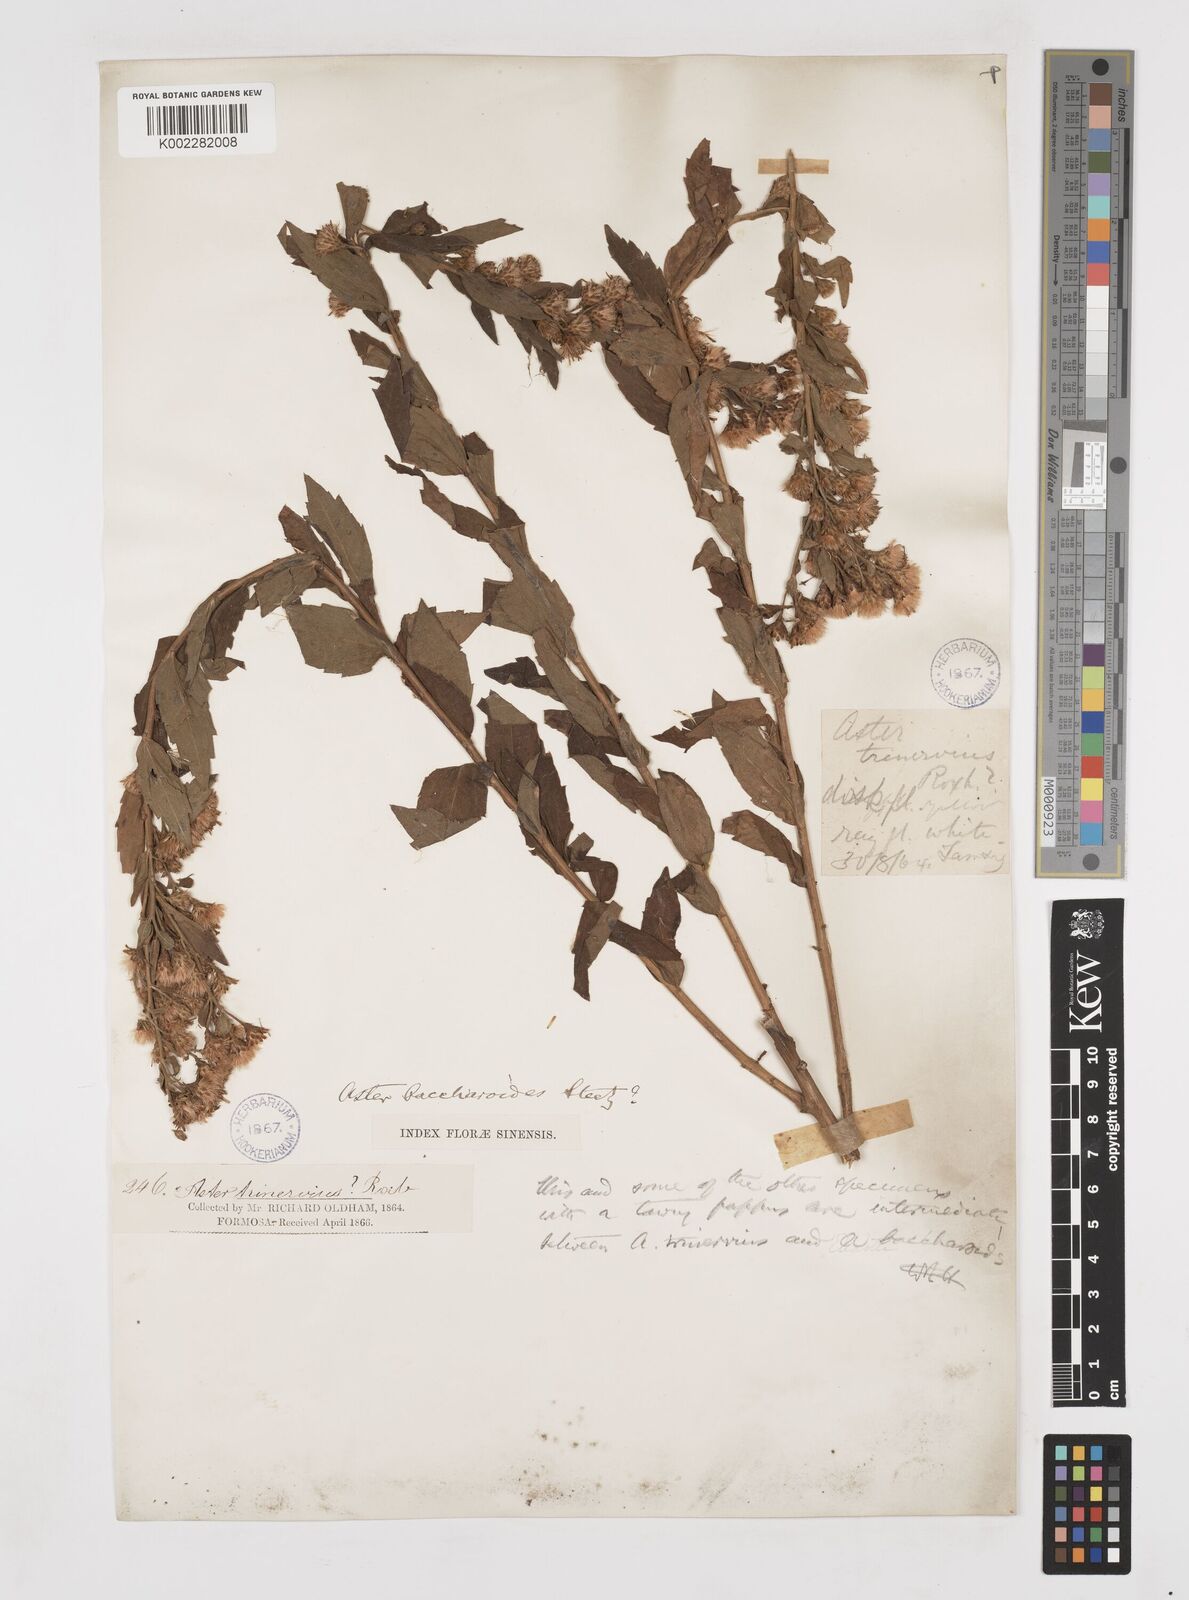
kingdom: Plantae
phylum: Tracheophyta
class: Magnoliopsida
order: Asterales
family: Asteraceae
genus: Aster
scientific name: Aster baccharoides
